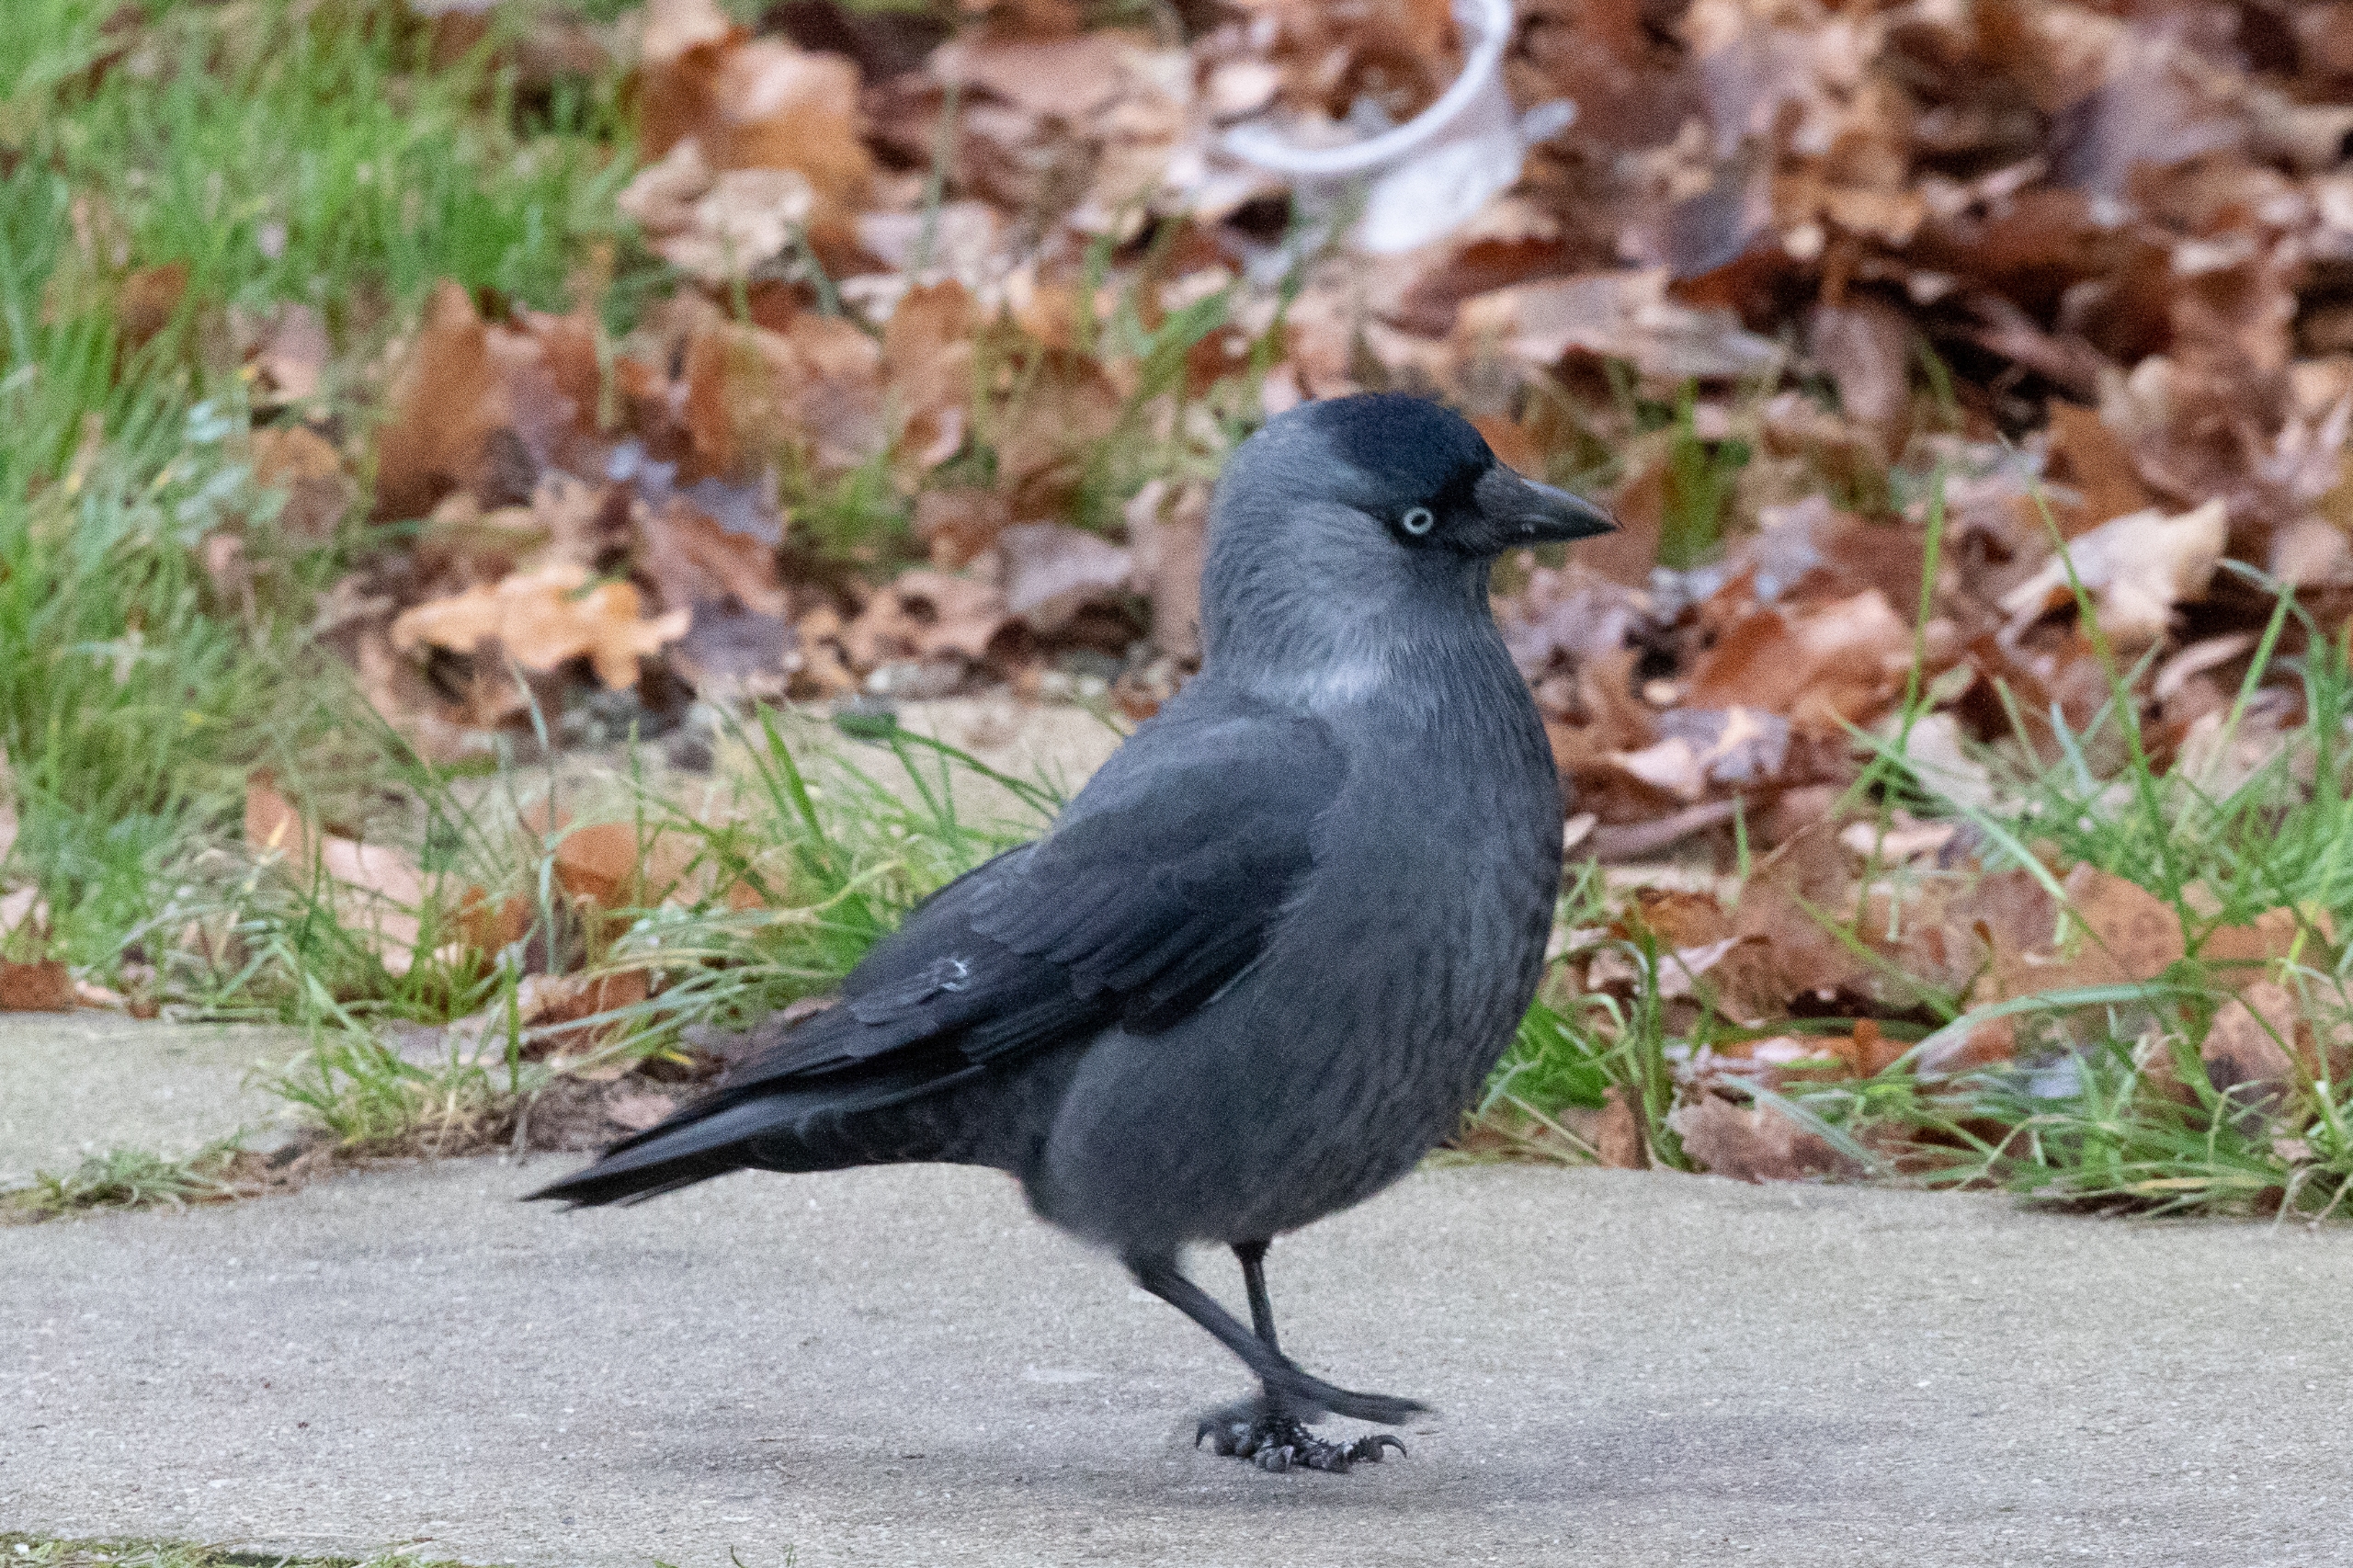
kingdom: Animalia
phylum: Chordata
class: Aves
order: Passeriformes
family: Corvidae
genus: Coloeus
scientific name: Coloeus monedula
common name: Allike
